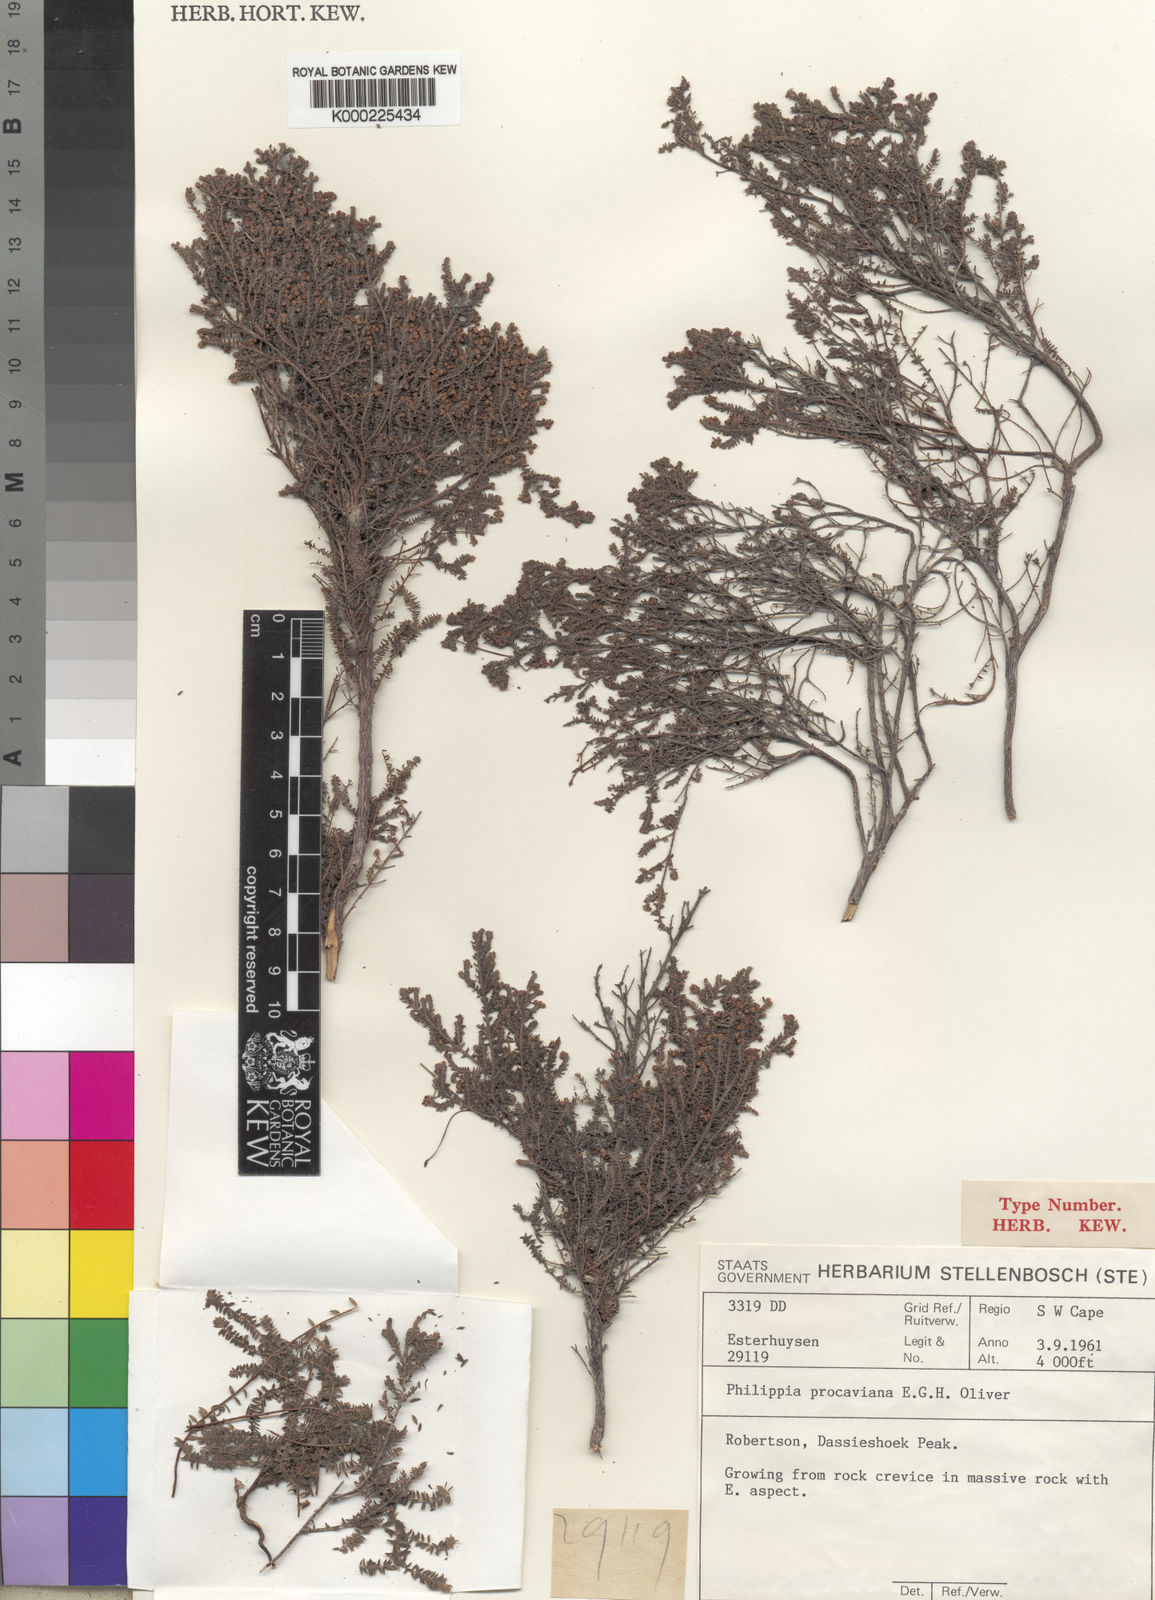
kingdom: Plantae
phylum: Tracheophyta
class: Magnoliopsida
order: Ericales
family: Ericaceae
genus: Erica
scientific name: Erica procaviana
